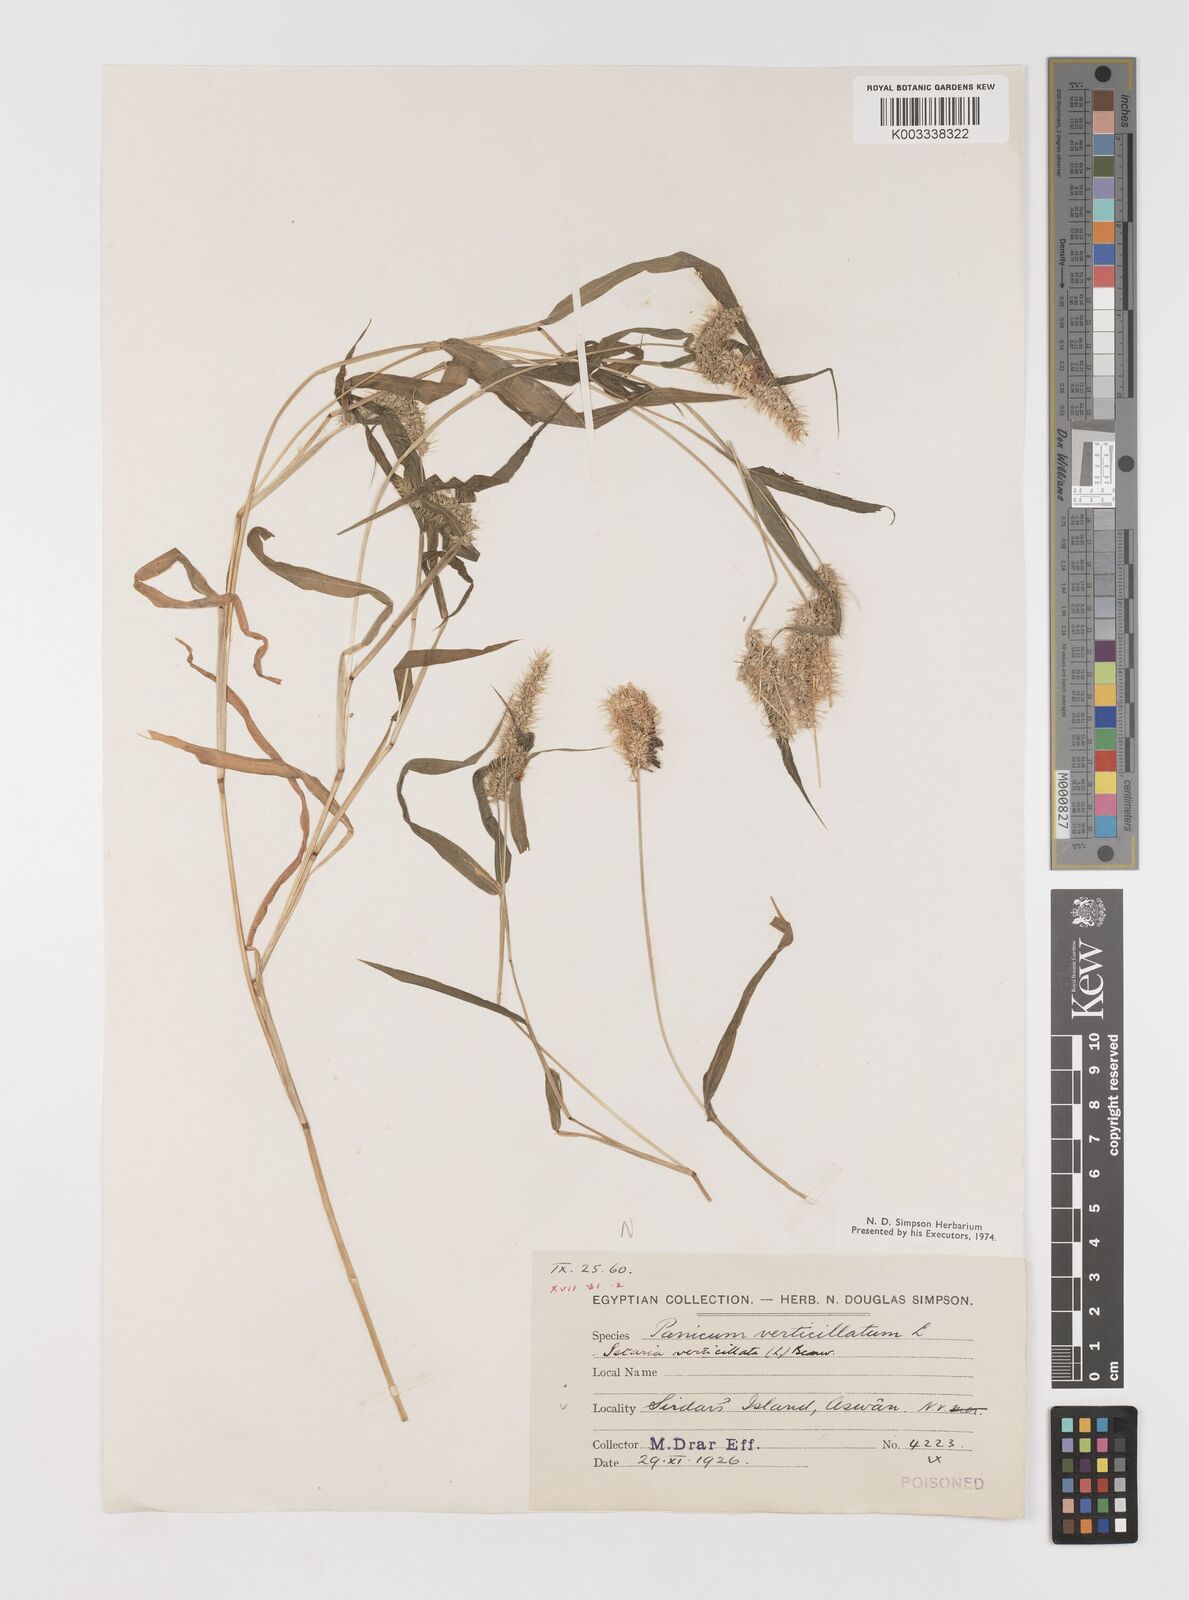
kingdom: Plantae
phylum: Tracheophyta
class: Liliopsida
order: Poales
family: Poaceae
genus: Setaria
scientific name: Setaria verticillata
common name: Hooked bristlegrass
